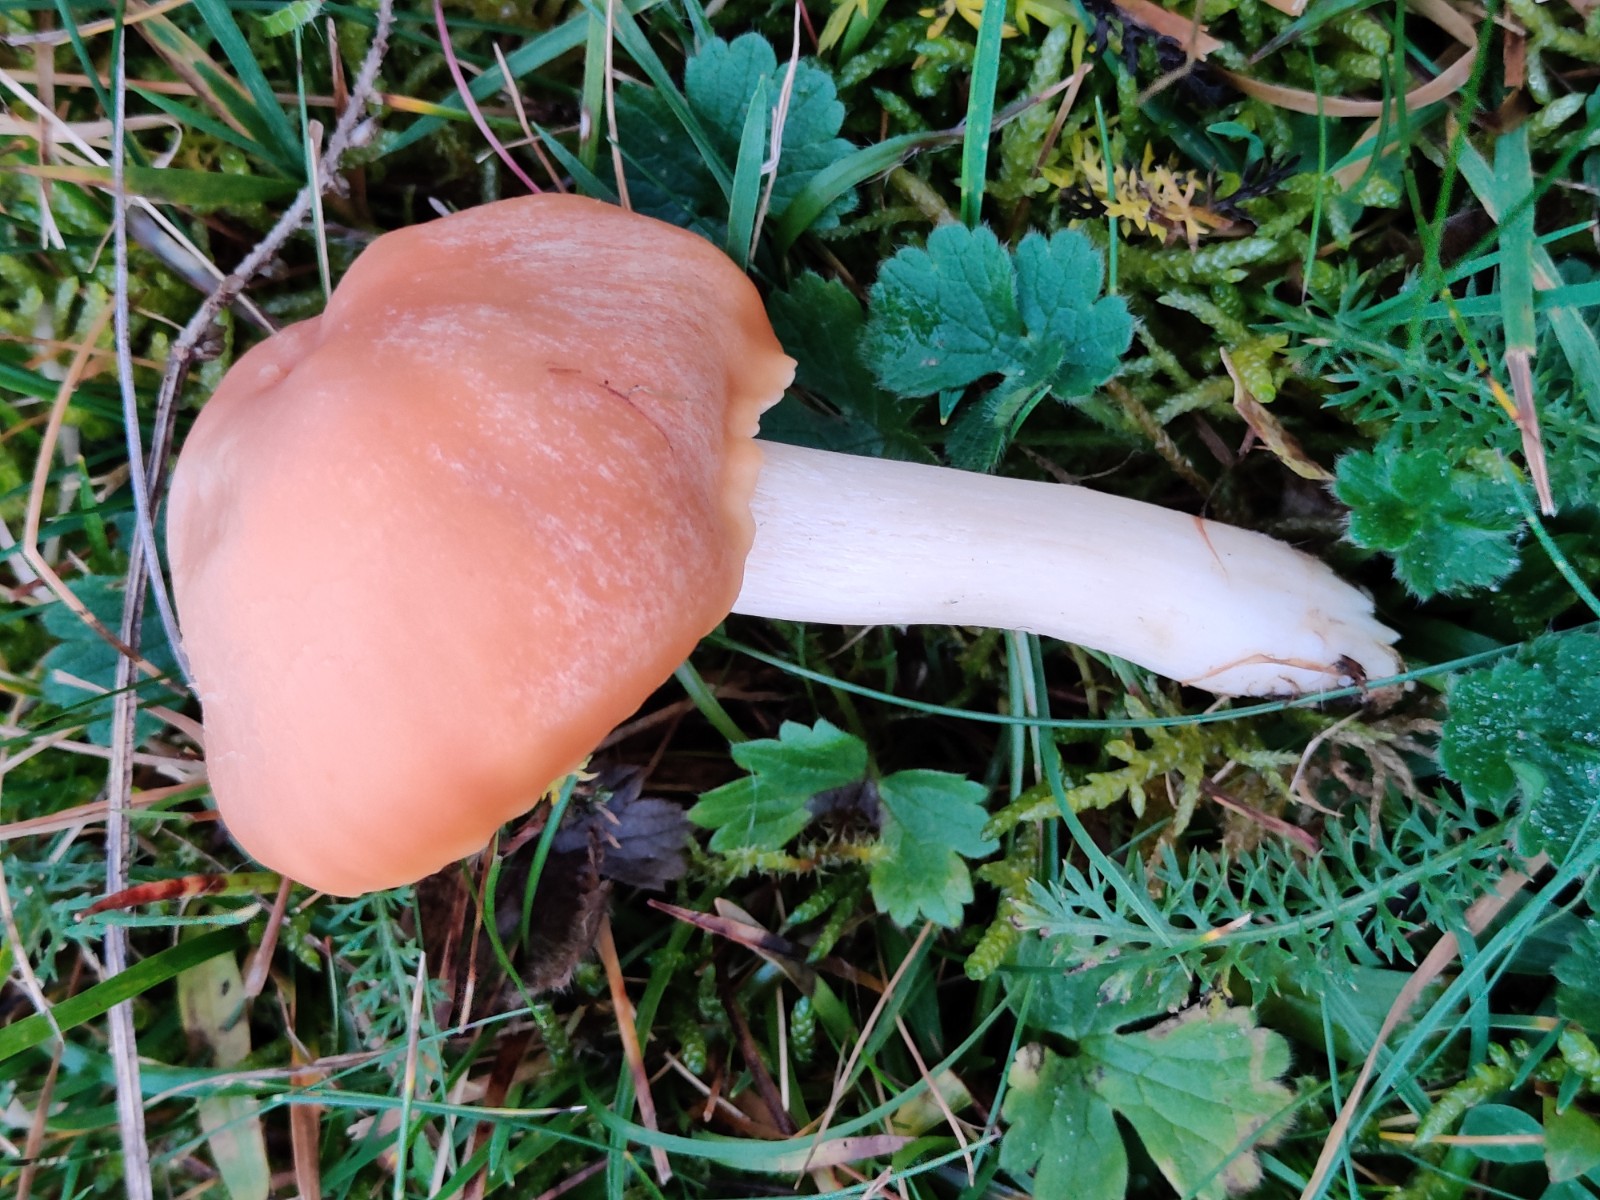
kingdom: Fungi
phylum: Basidiomycota
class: Agaricomycetes
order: Agaricales
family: Hygrophoraceae
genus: Cuphophyllus
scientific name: Cuphophyllus pratensis
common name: eng-vokshat
